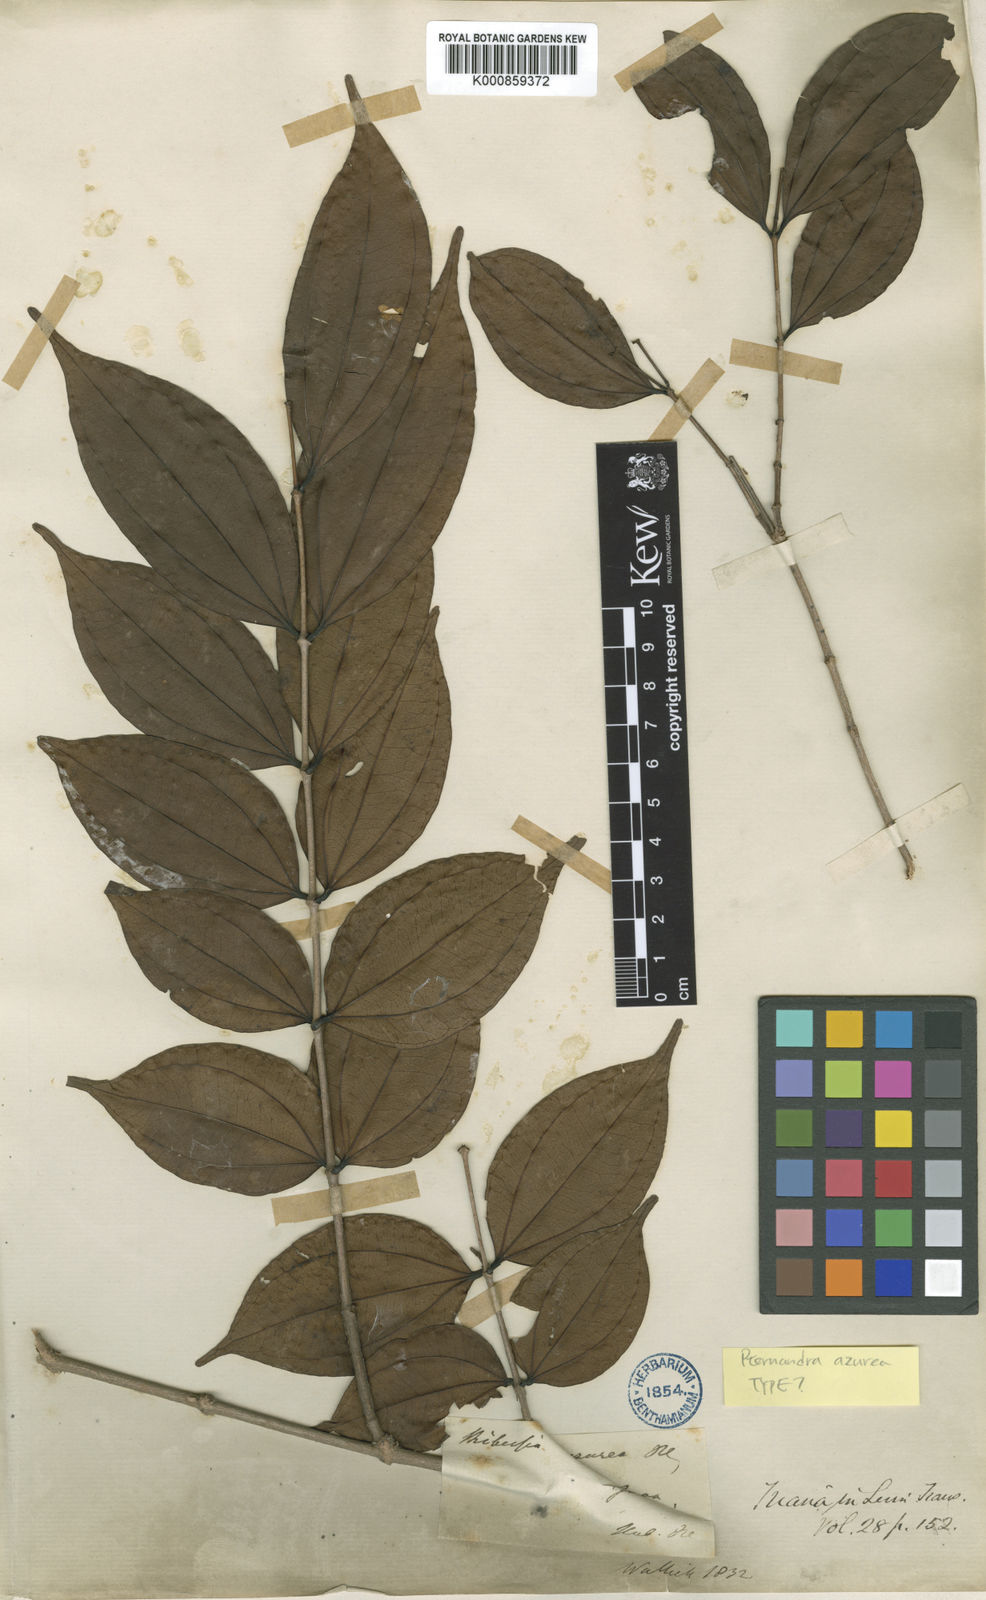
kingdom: Plantae
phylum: Tracheophyta
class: Magnoliopsida
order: Myrtales
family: Melastomataceae
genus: Pternandra
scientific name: Pternandra azurea
